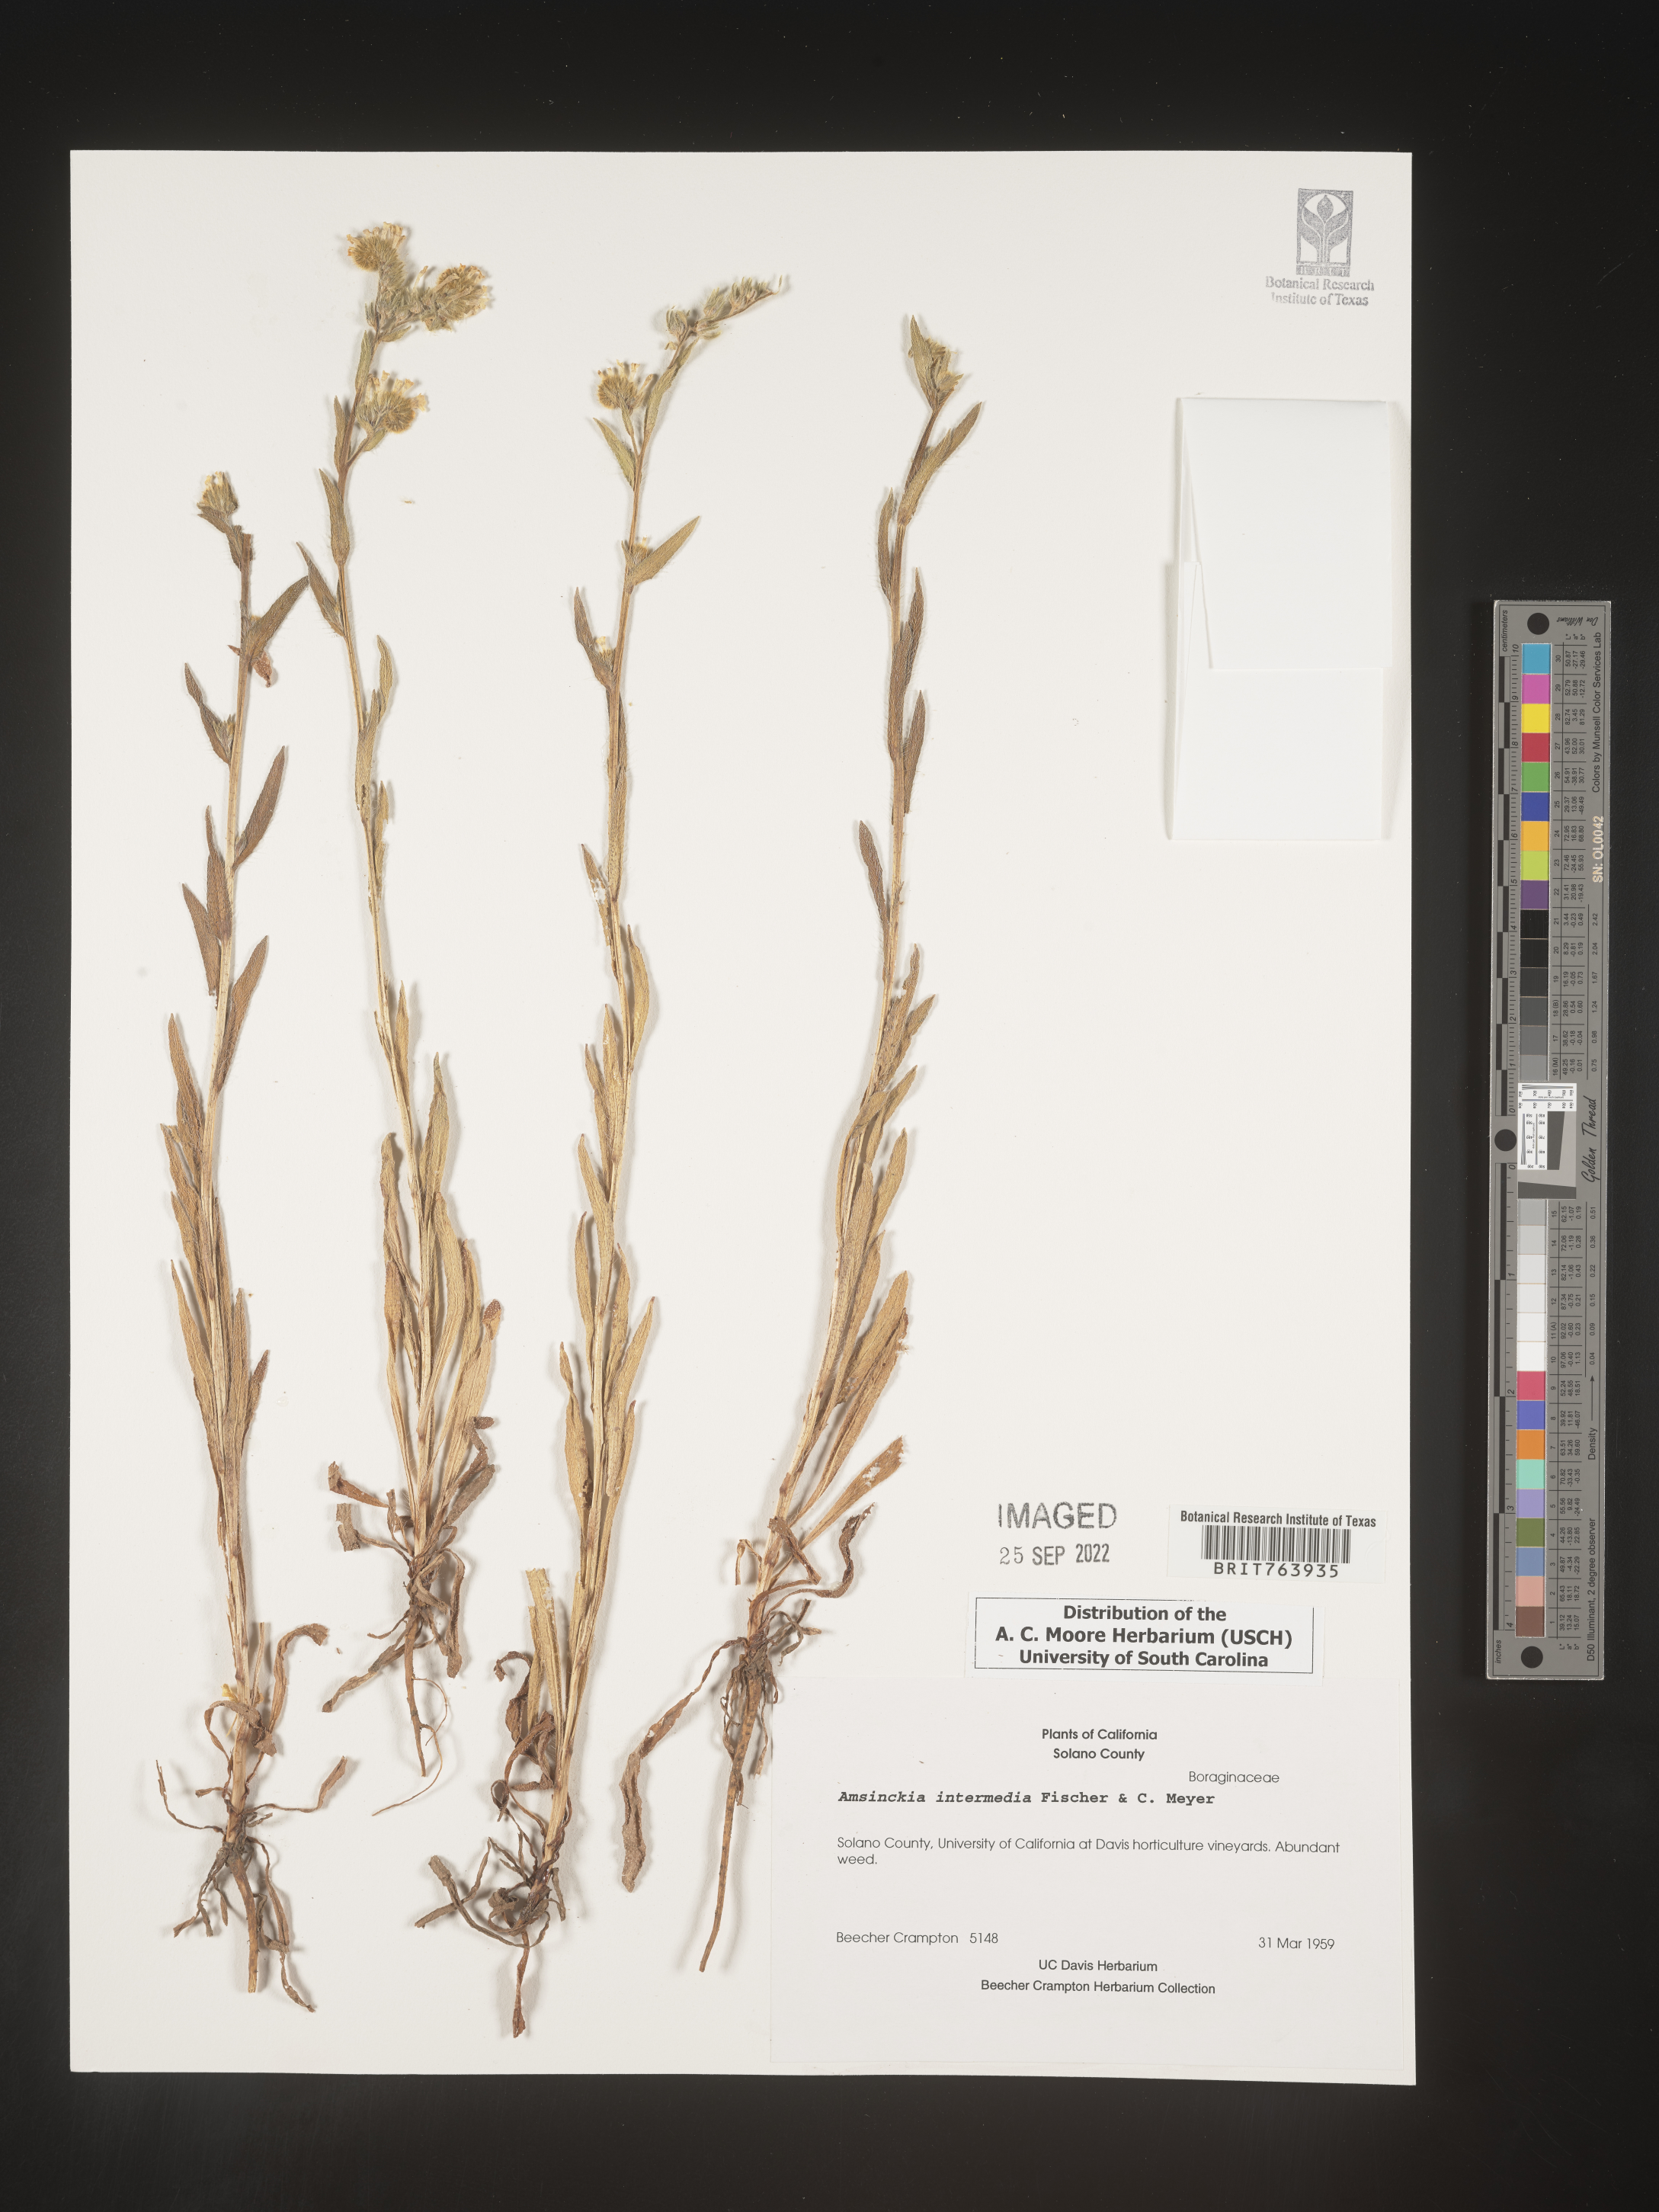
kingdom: Plantae
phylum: Tracheophyta
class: Magnoliopsida
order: Boraginales
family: Boraginaceae
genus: Amsinckia
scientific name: Amsinckia
